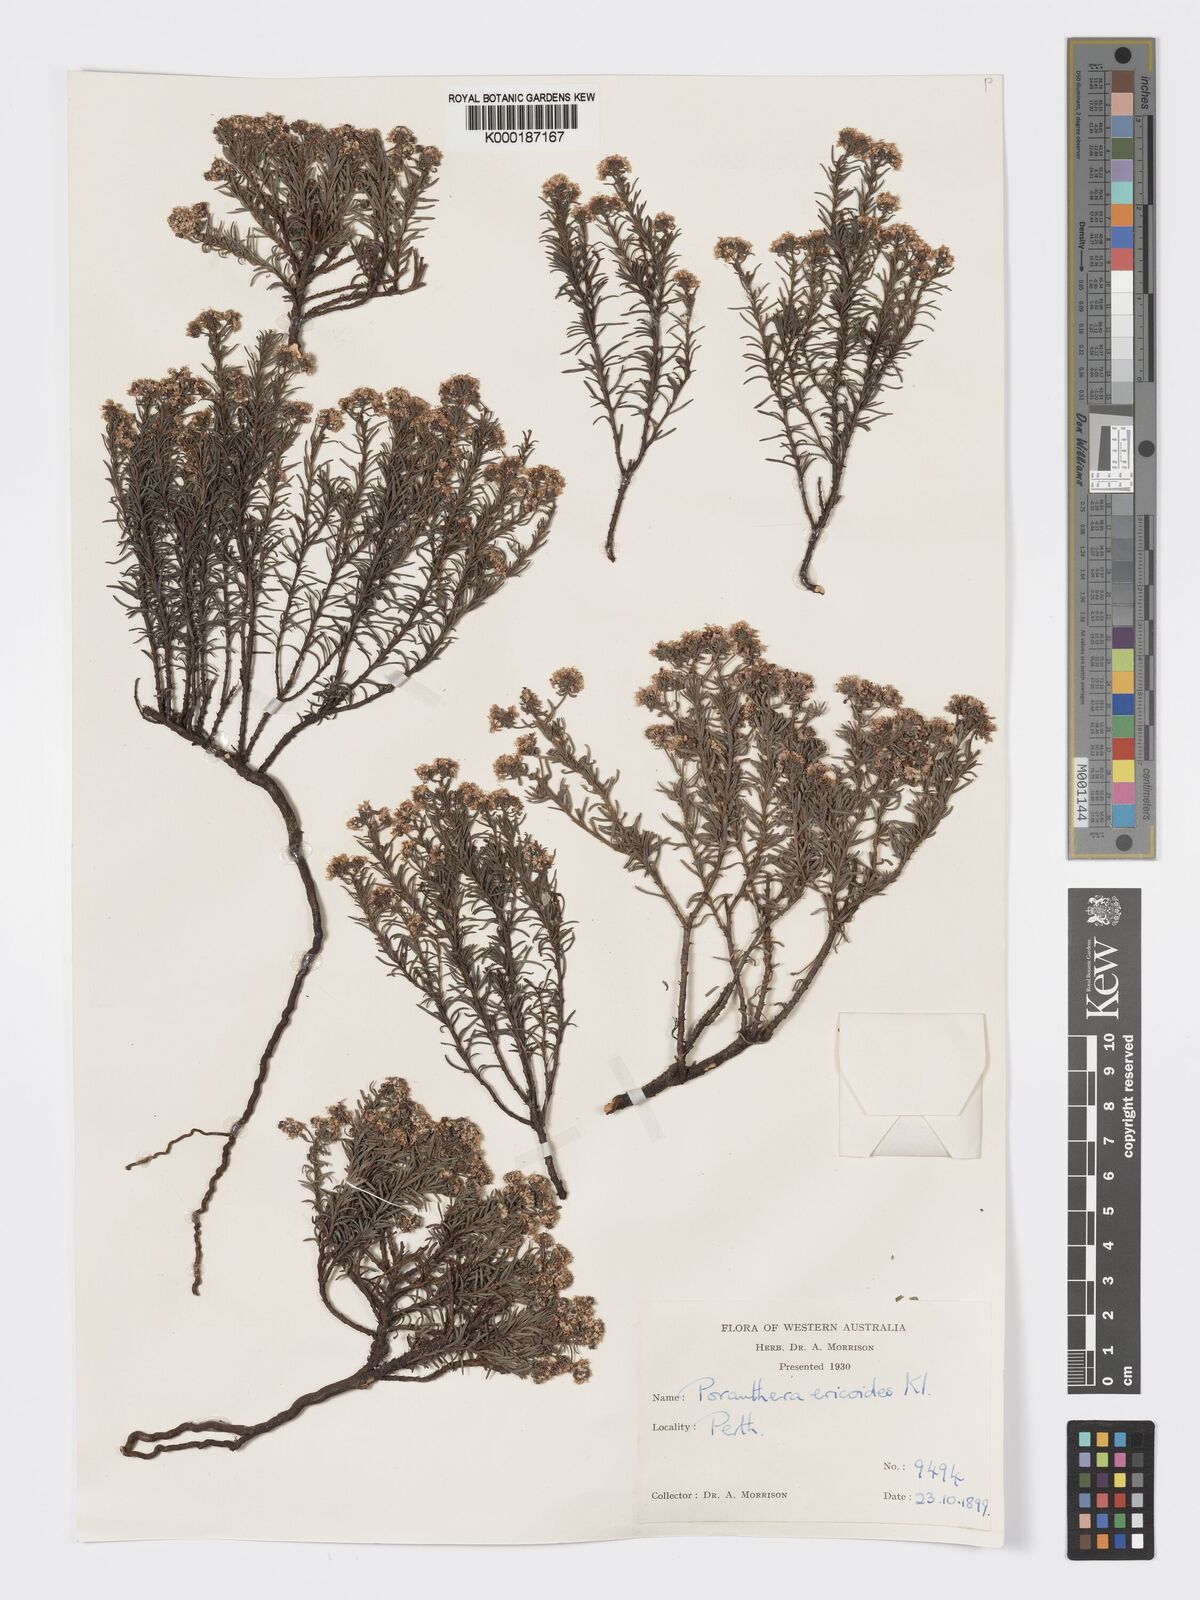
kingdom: Plantae
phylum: Tracheophyta
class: Magnoliopsida
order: Malpighiales
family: Phyllanthaceae
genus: Poranthera
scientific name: Poranthera ericoides
